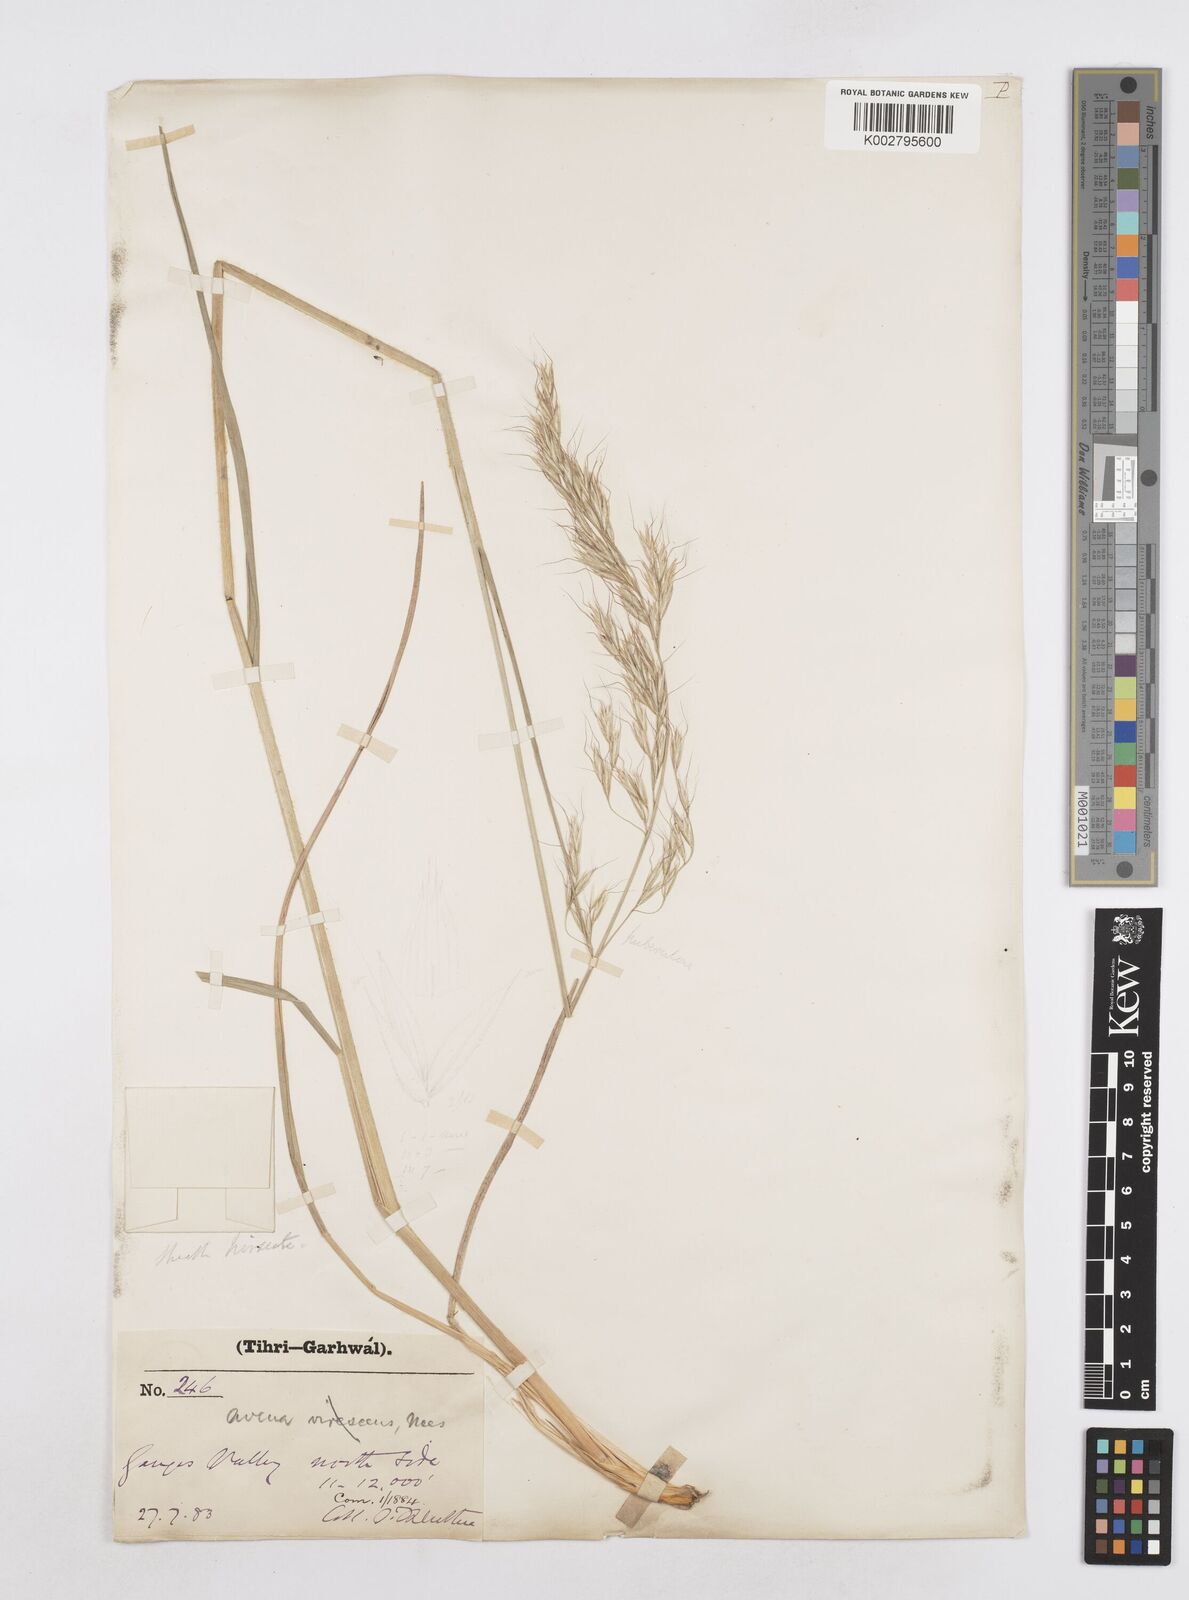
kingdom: Plantae
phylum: Tracheophyta
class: Liliopsida
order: Poales
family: Poaceae
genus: Helictotrichon
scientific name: Helictotrichon
